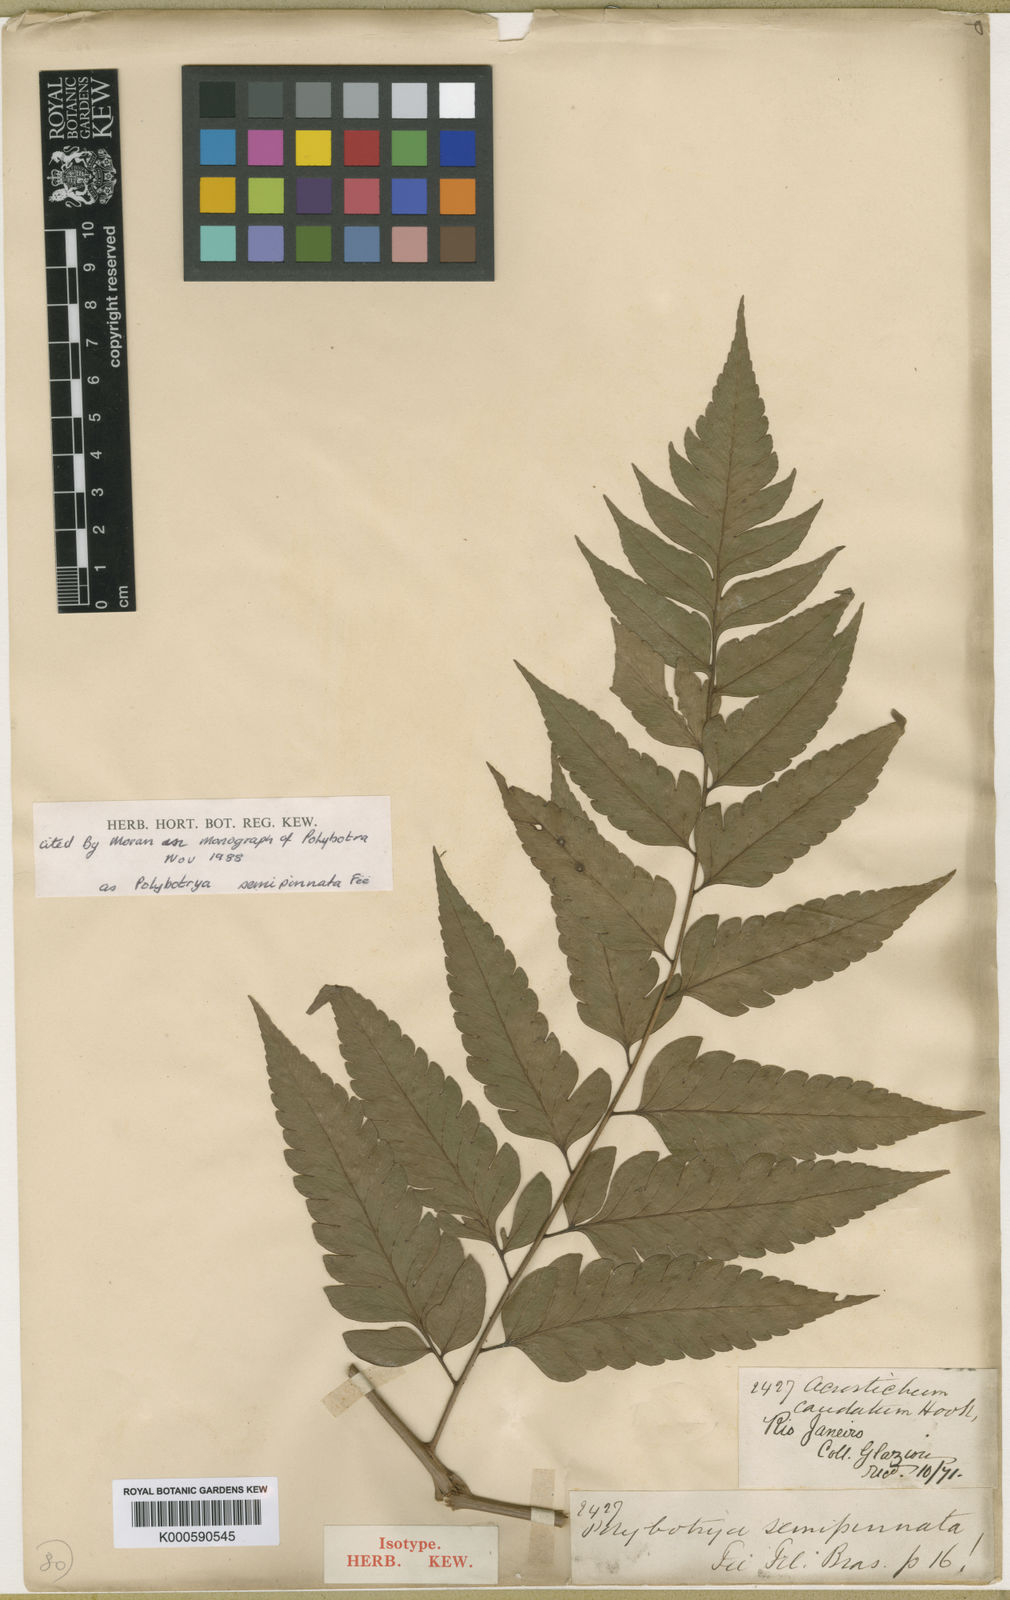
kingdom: Plantae
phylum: Tracheophyta
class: Polypodiopsida
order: Polypodiales
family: Dryopteridaceae
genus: Polybotrya
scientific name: Polybotrya
